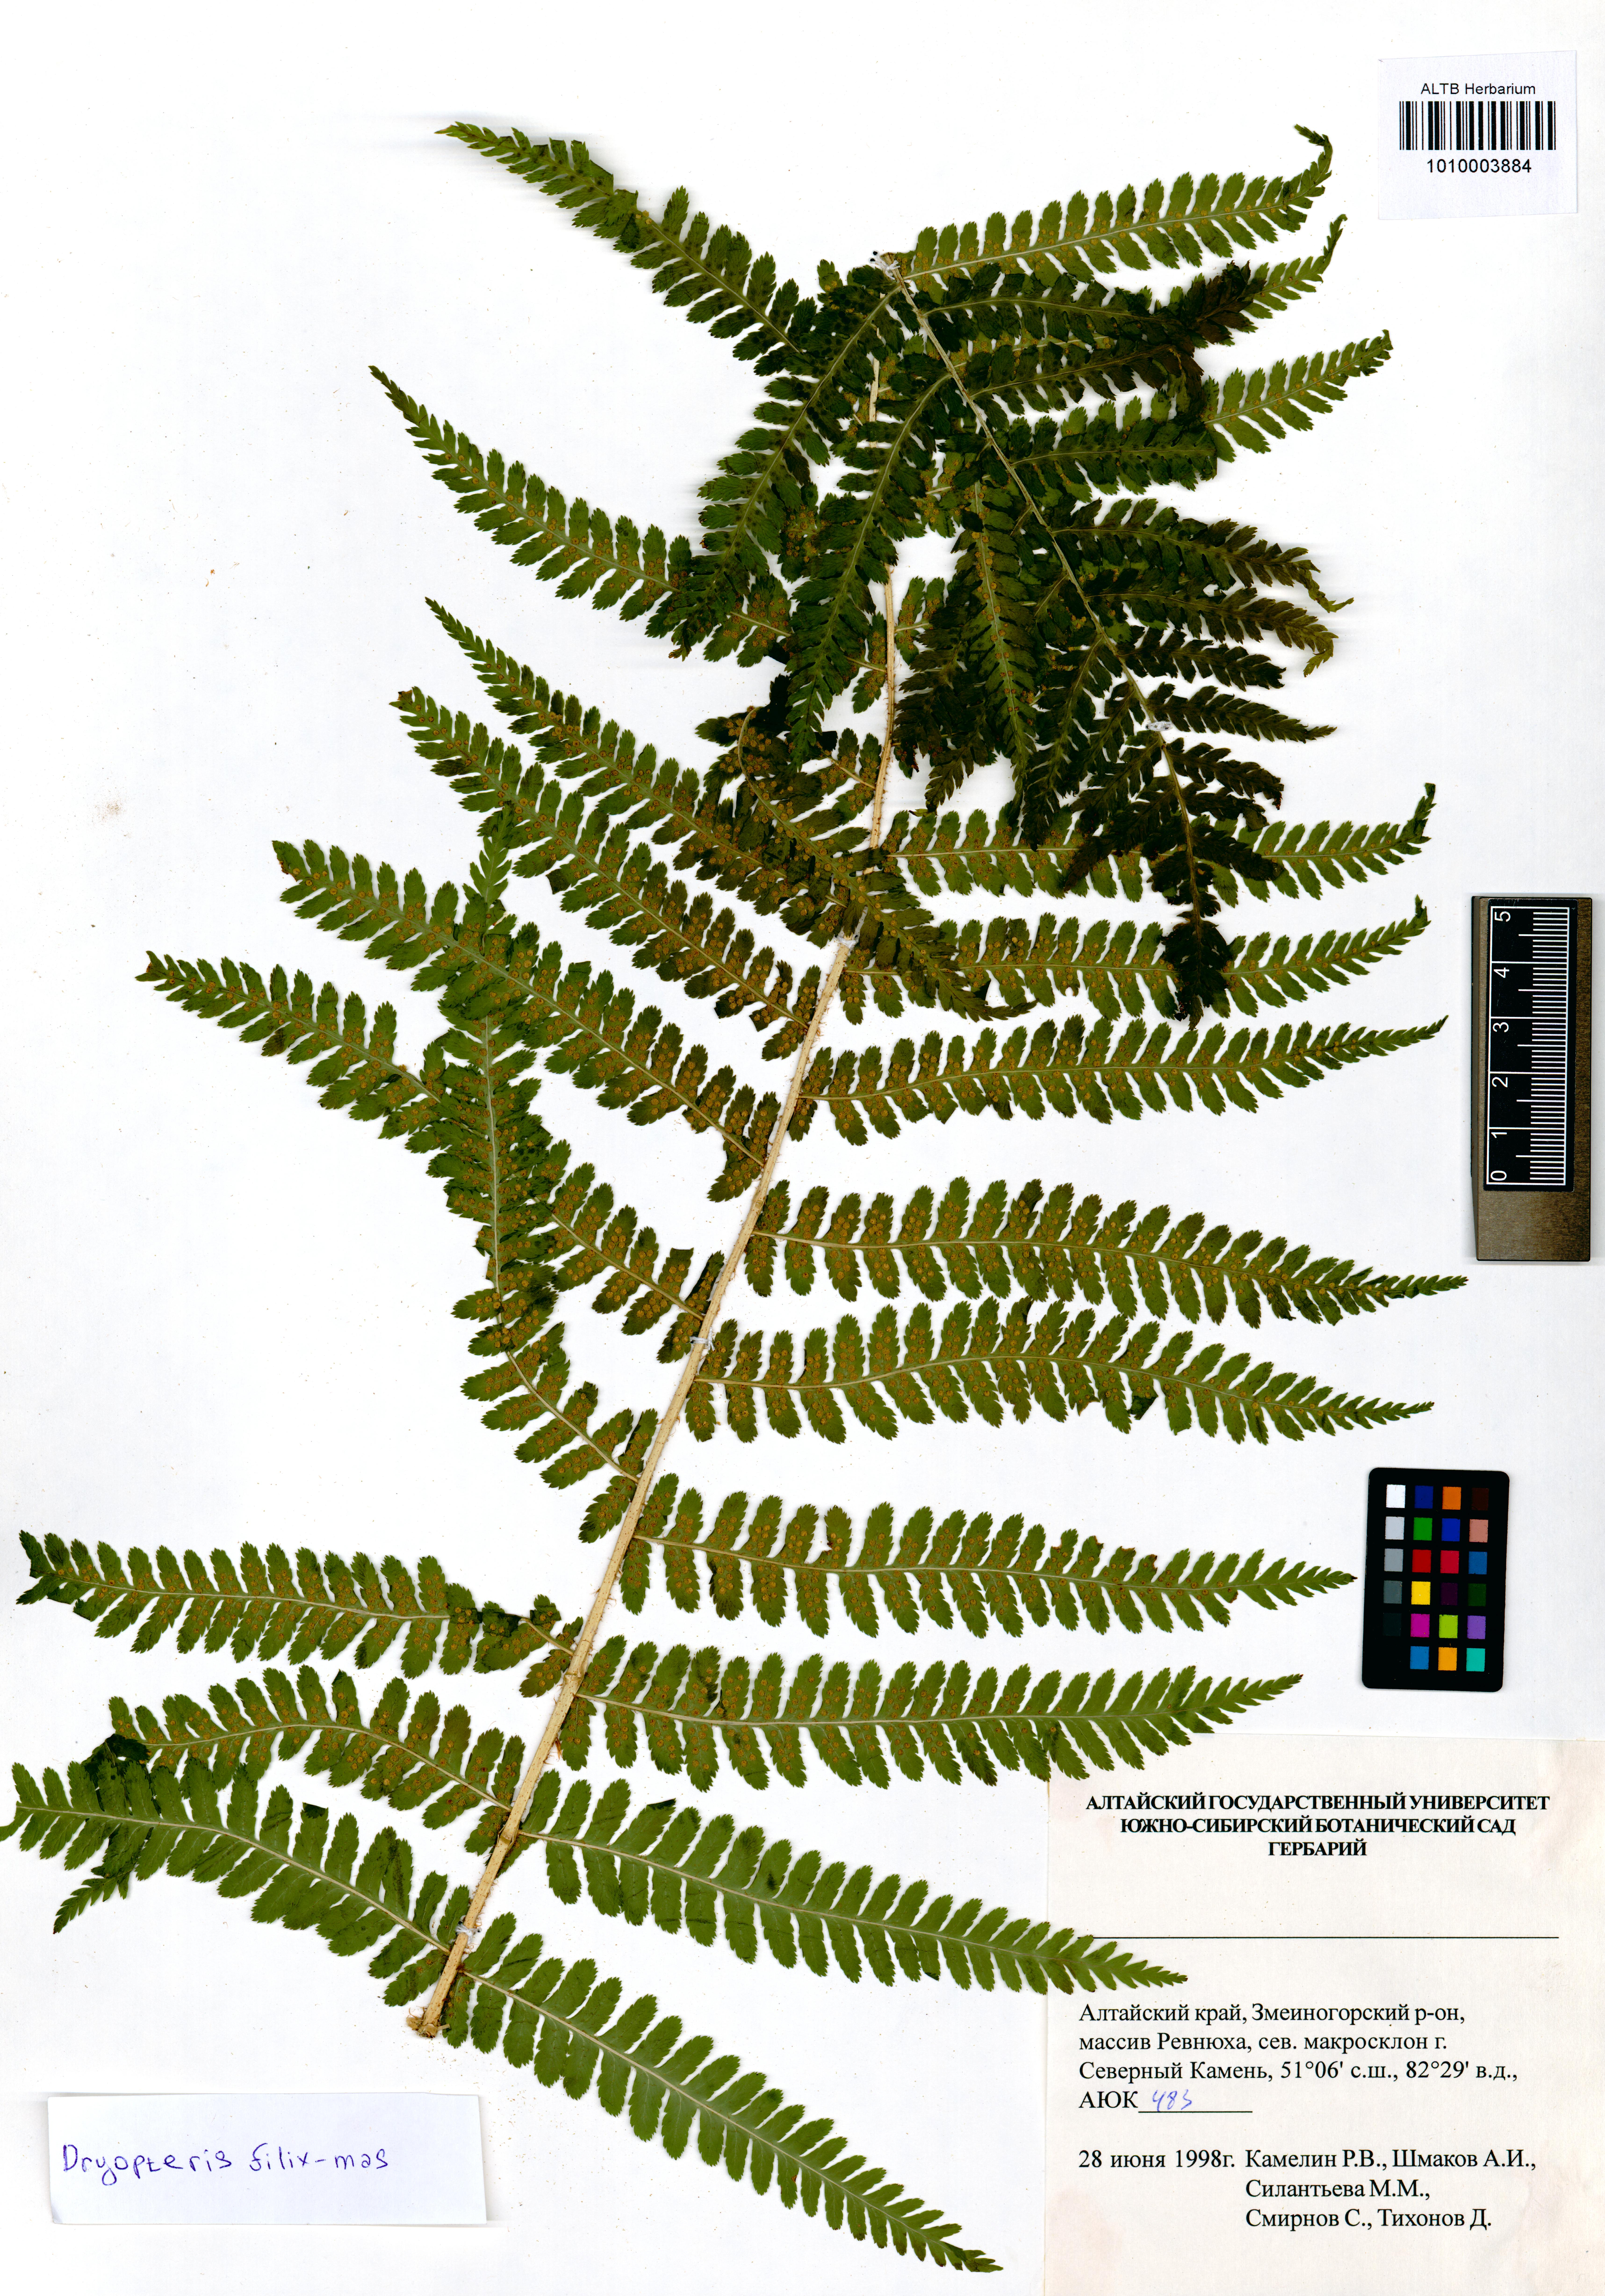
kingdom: Plantae
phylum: Tracheophyta
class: Polypodiopsida
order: Polypodiales
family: Dryopteridaceae
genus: Dryopteris
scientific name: Dryopteris filix-mas
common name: Male fern
